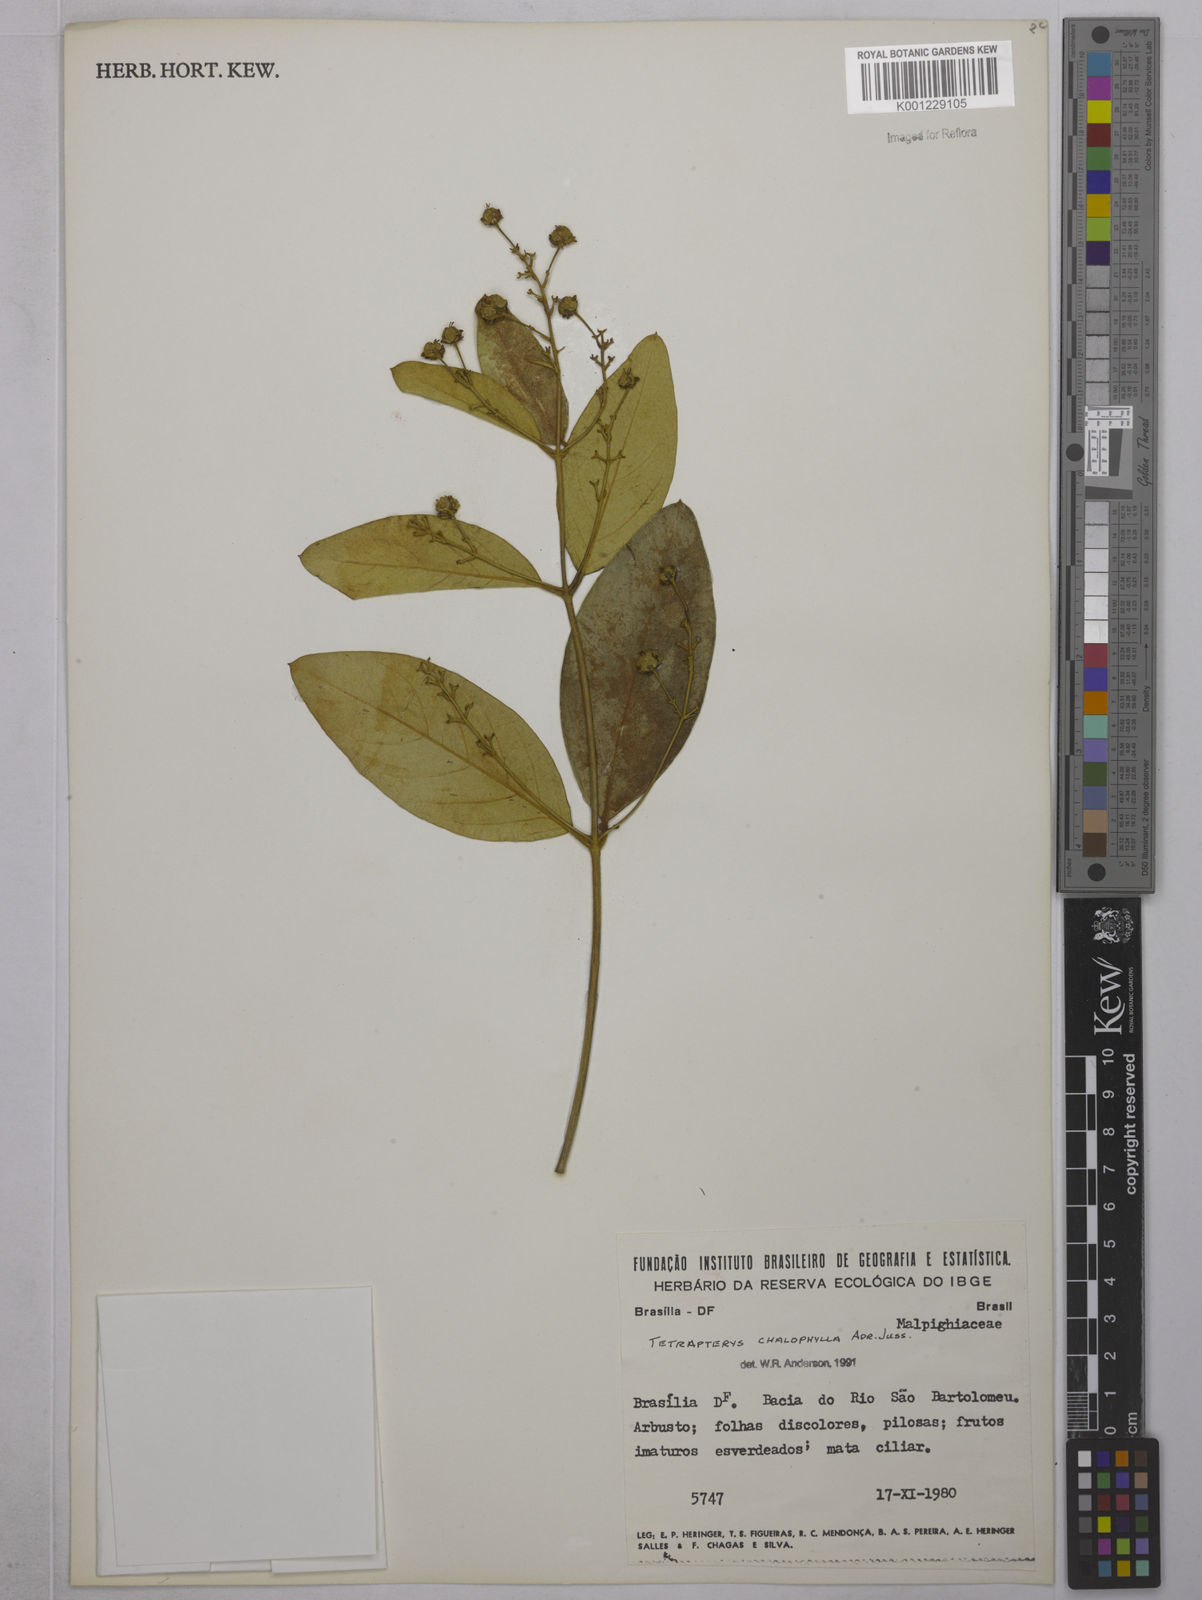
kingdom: Plantae
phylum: Tracheophyta
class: Magnoliopsida
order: Malpighiales
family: Malpighiaceae
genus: Niedenzuella
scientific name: Niedenzuella sericea
